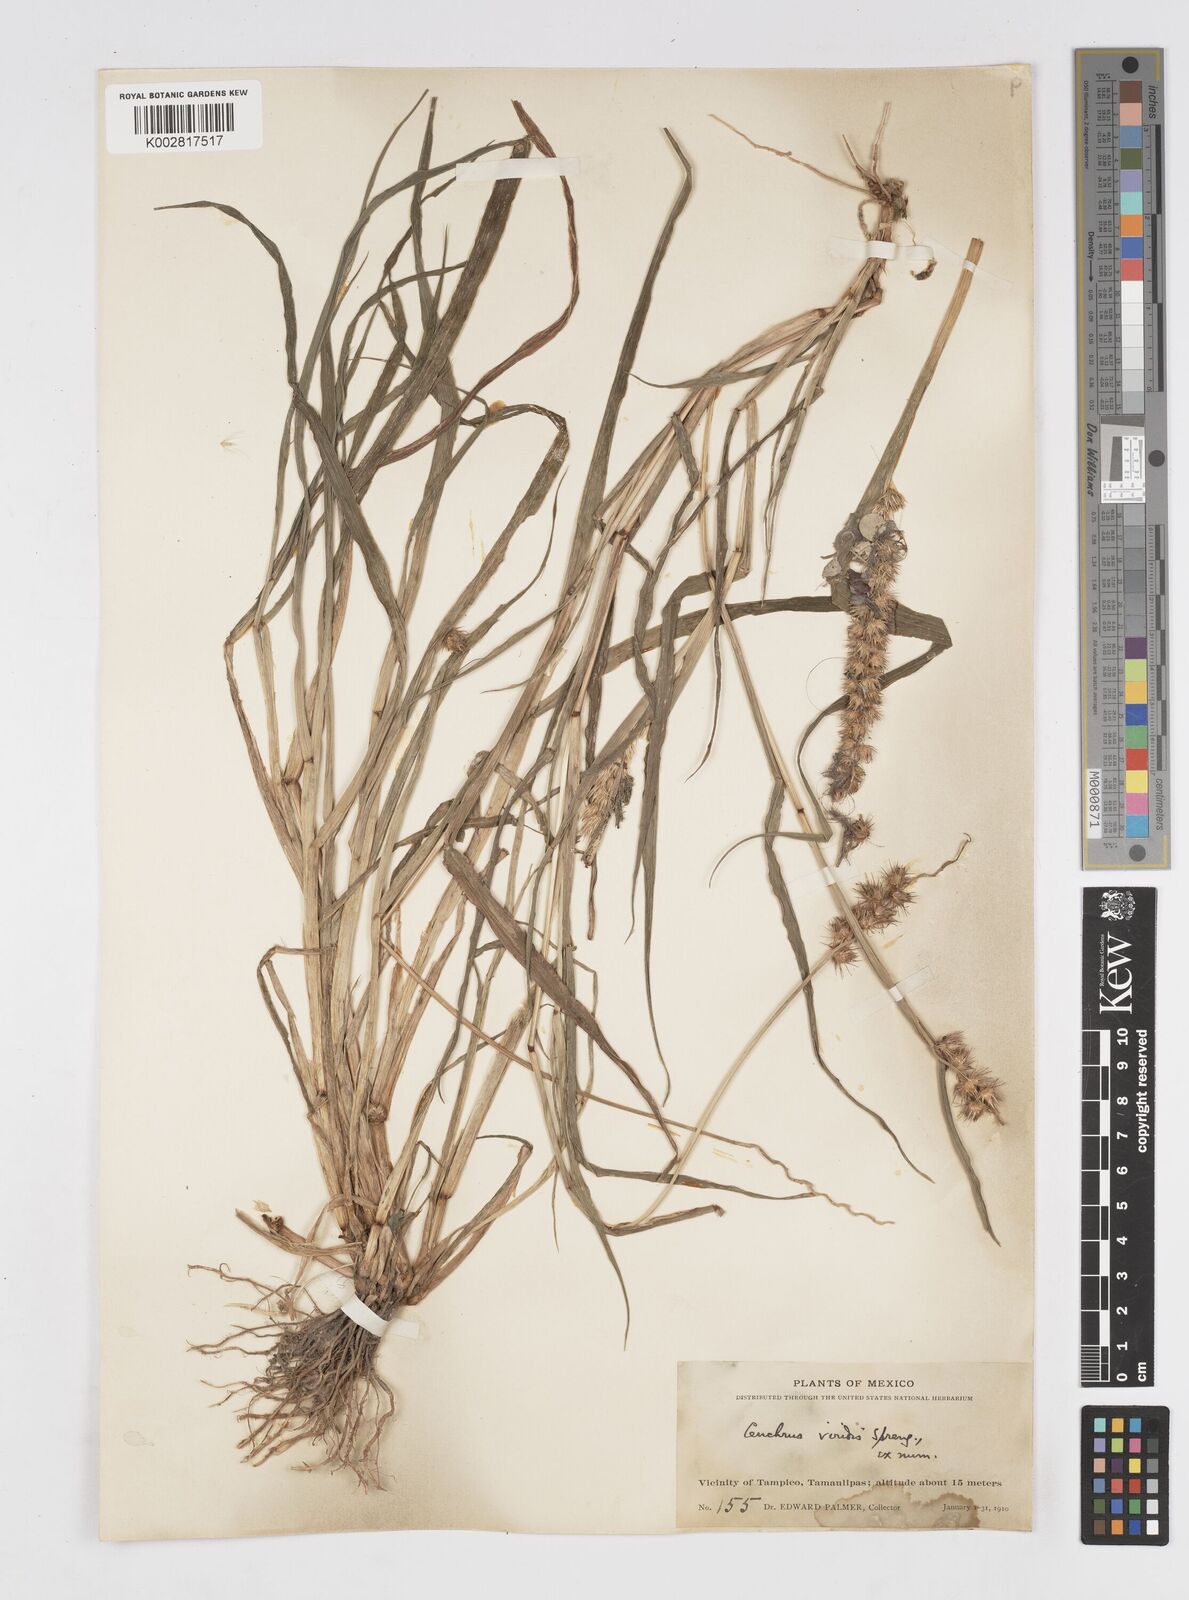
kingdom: Plantae
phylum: Tracheophyta
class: Liliopsida
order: Poales
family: Poaceae
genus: Cenchrus
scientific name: Cenchrus
